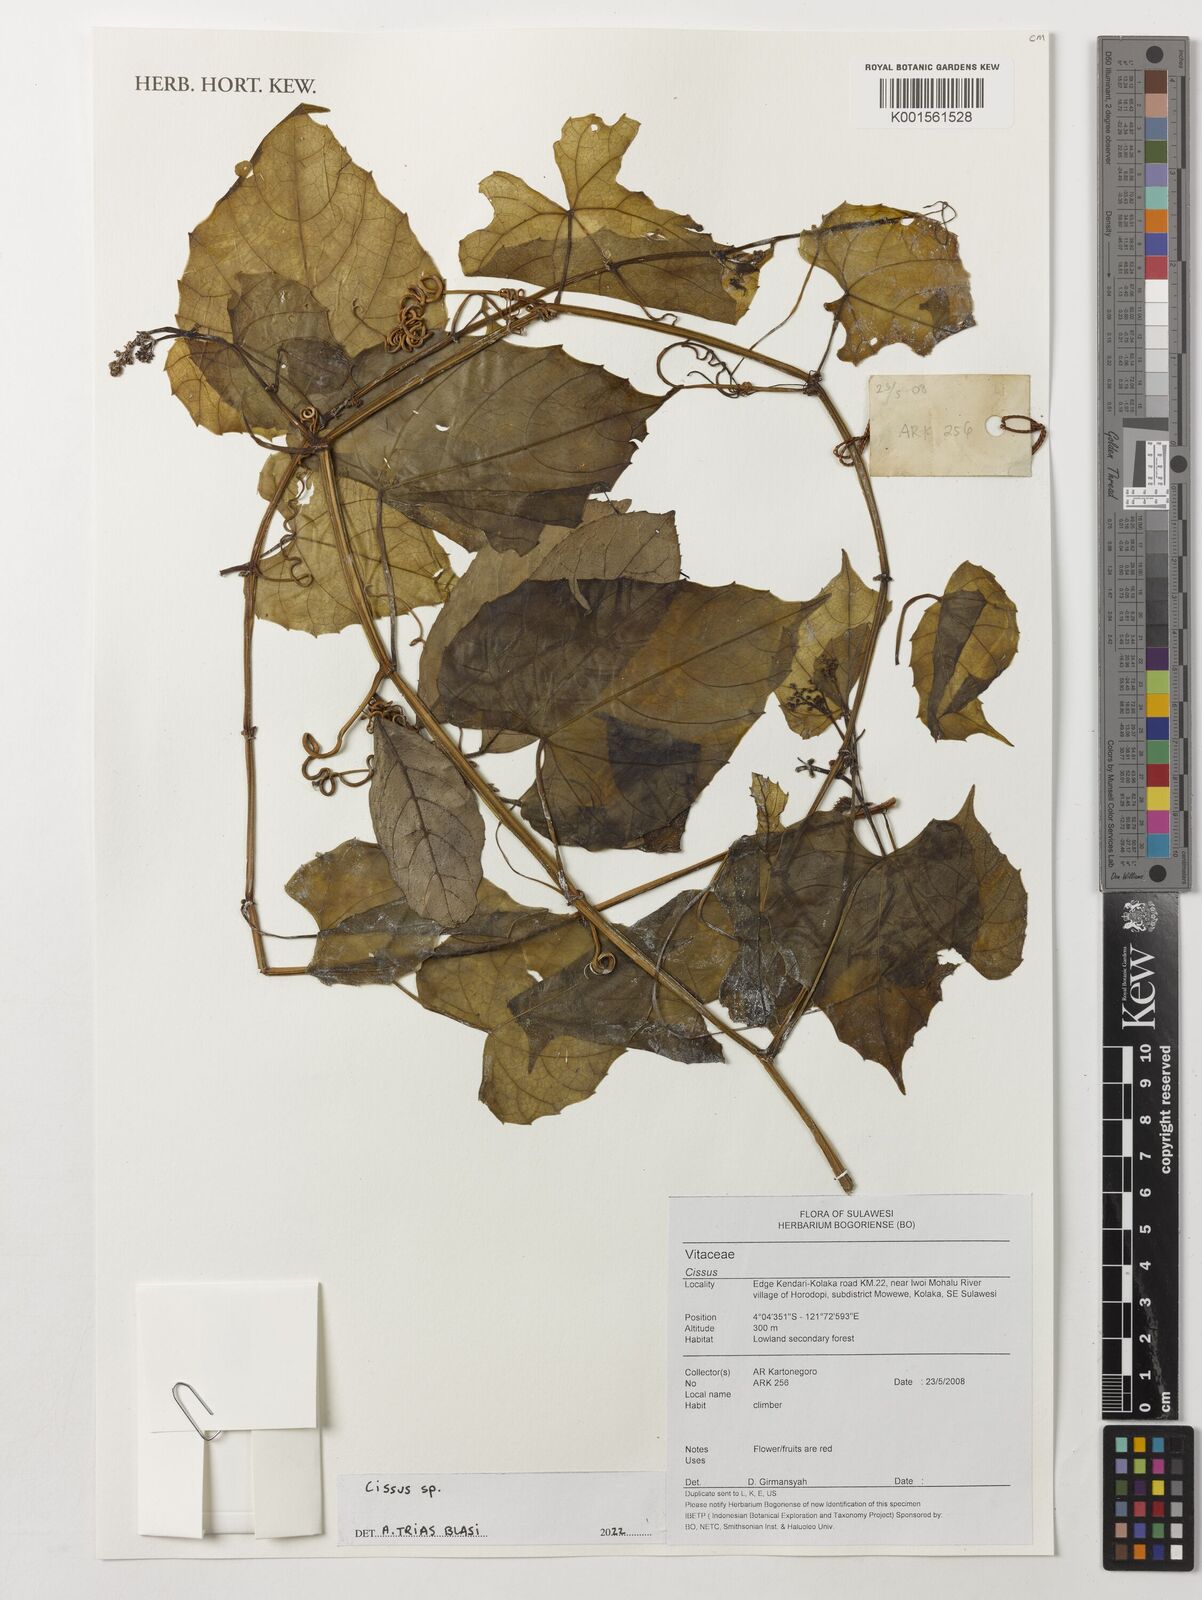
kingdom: Plantae
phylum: Tracheophyta
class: Magnoliopsida
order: Vitales
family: Vitaceae
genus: Cissus
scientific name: Cissus
